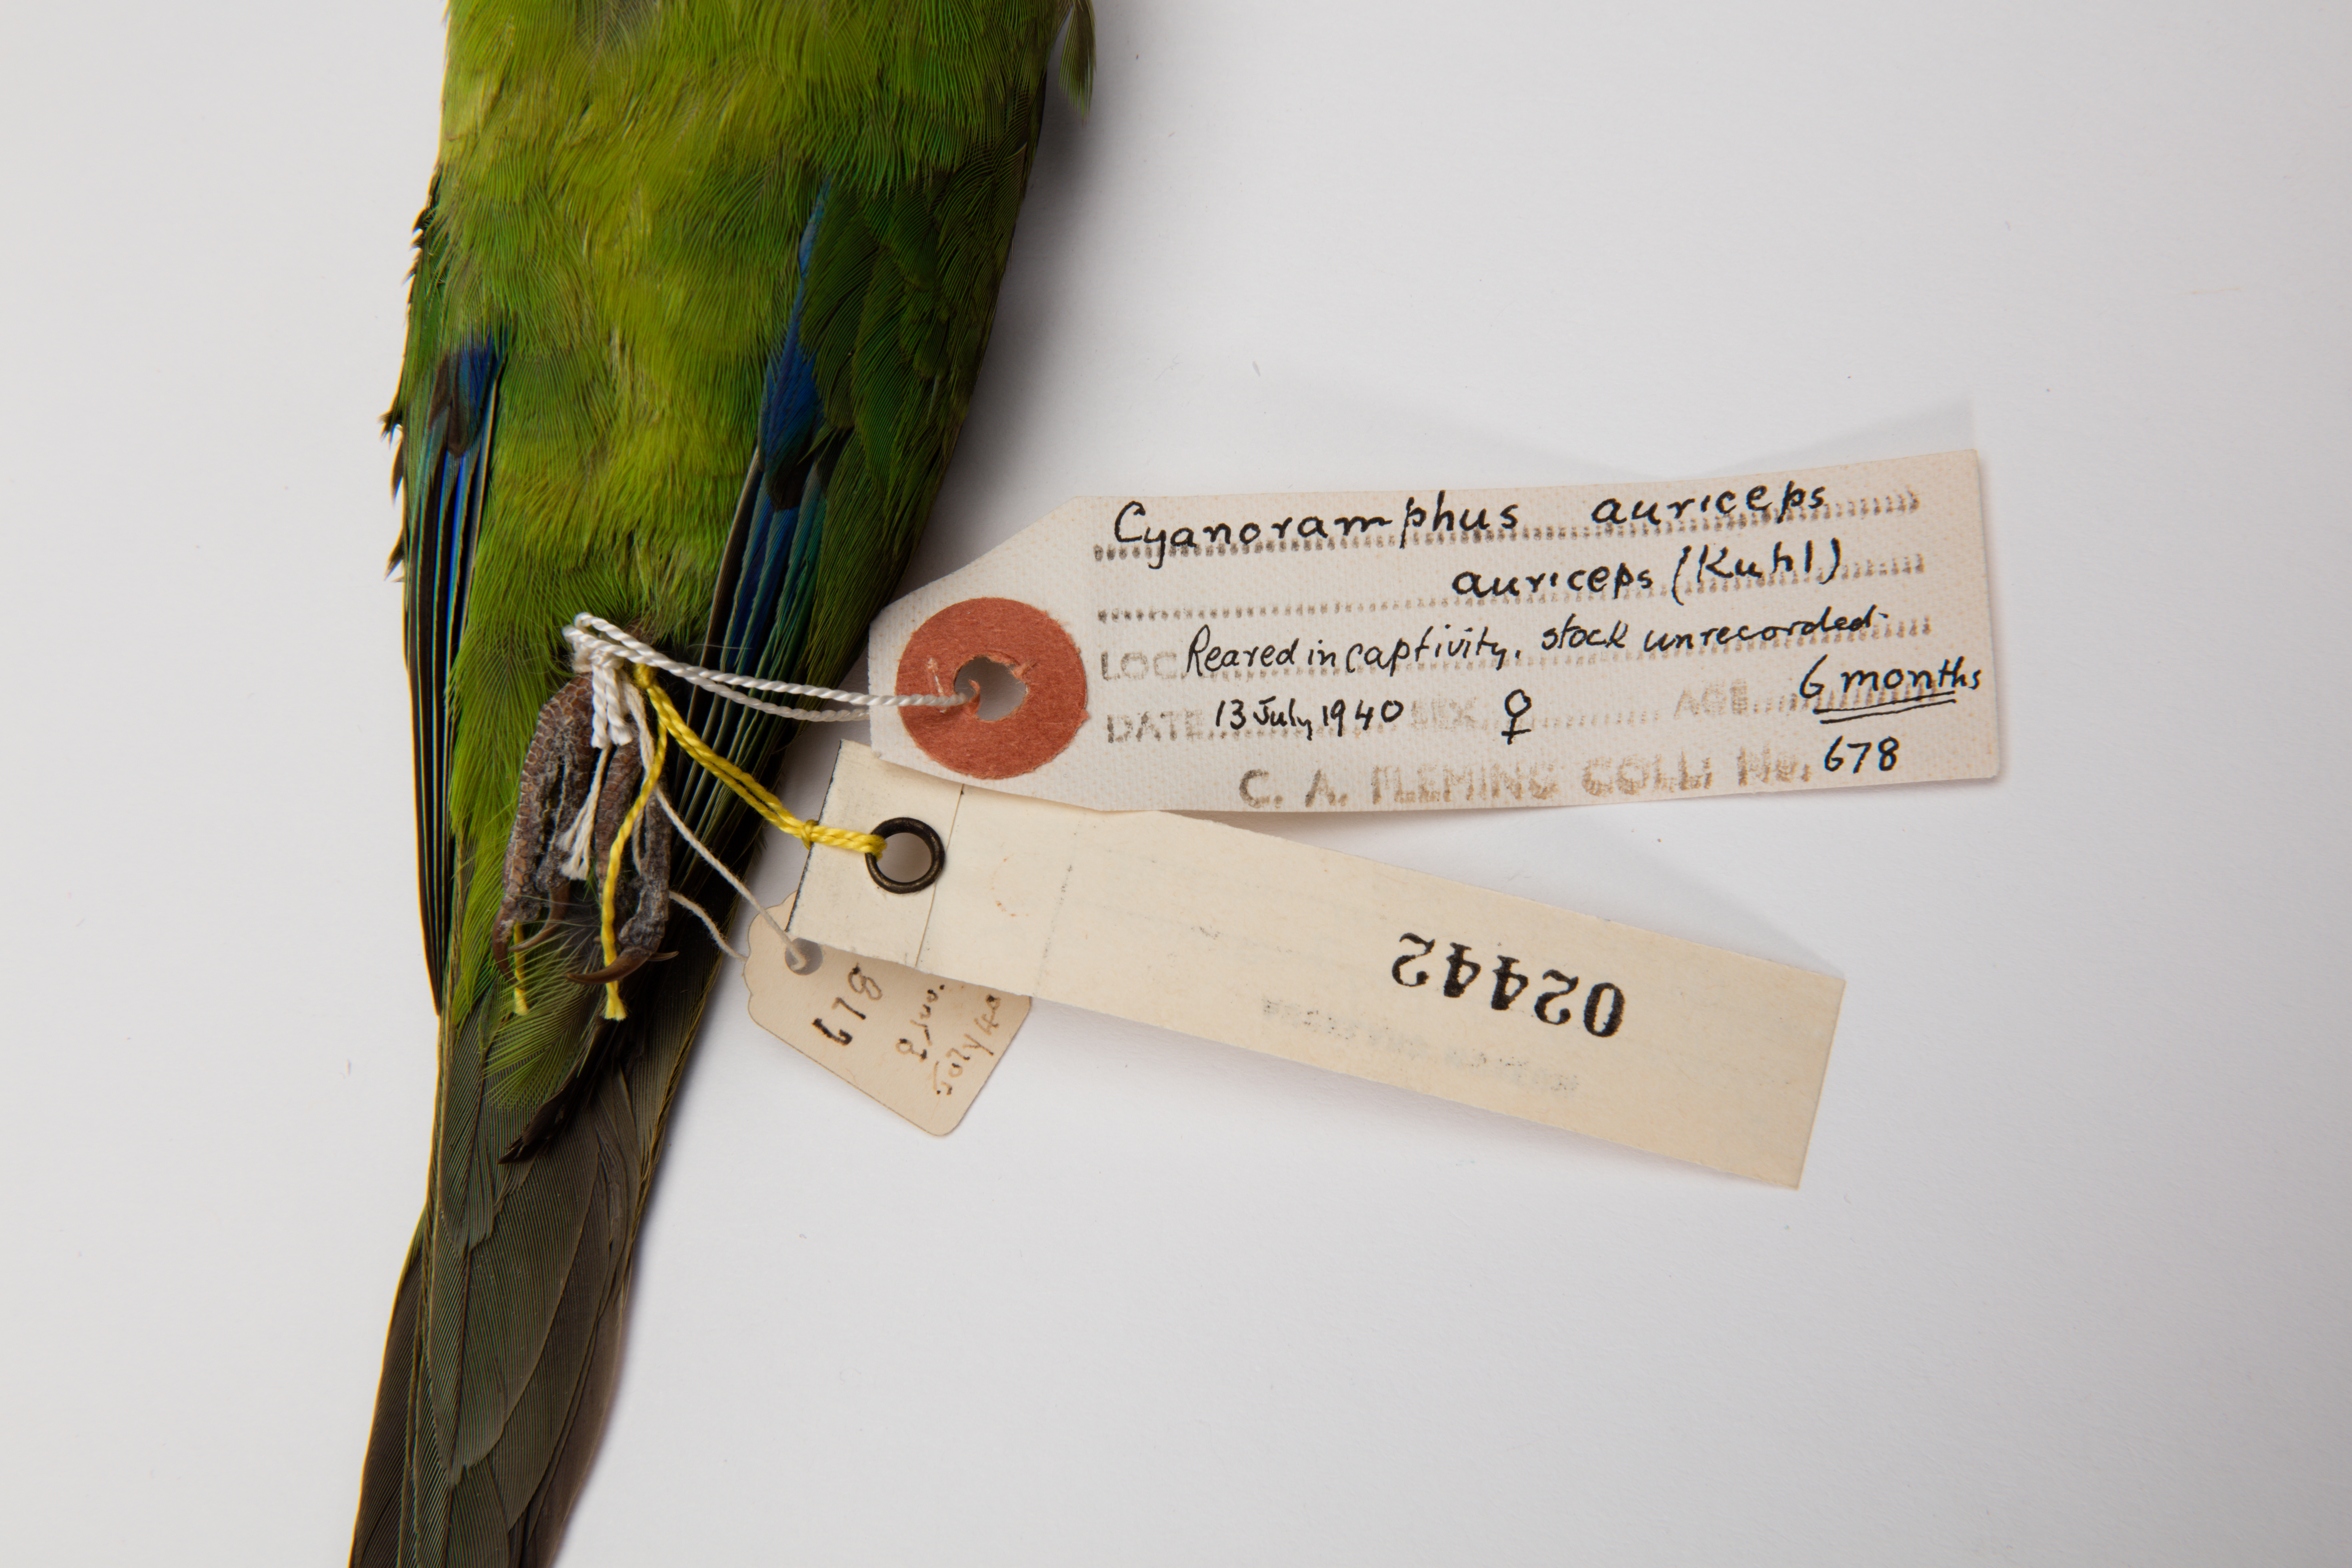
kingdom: Animalia
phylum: Chordata
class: Aves
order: Psittaciformes
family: Psittacidae
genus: Cyanoramphus
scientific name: Cyanoramphus auriceps
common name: Yellow-crowned parakeet
